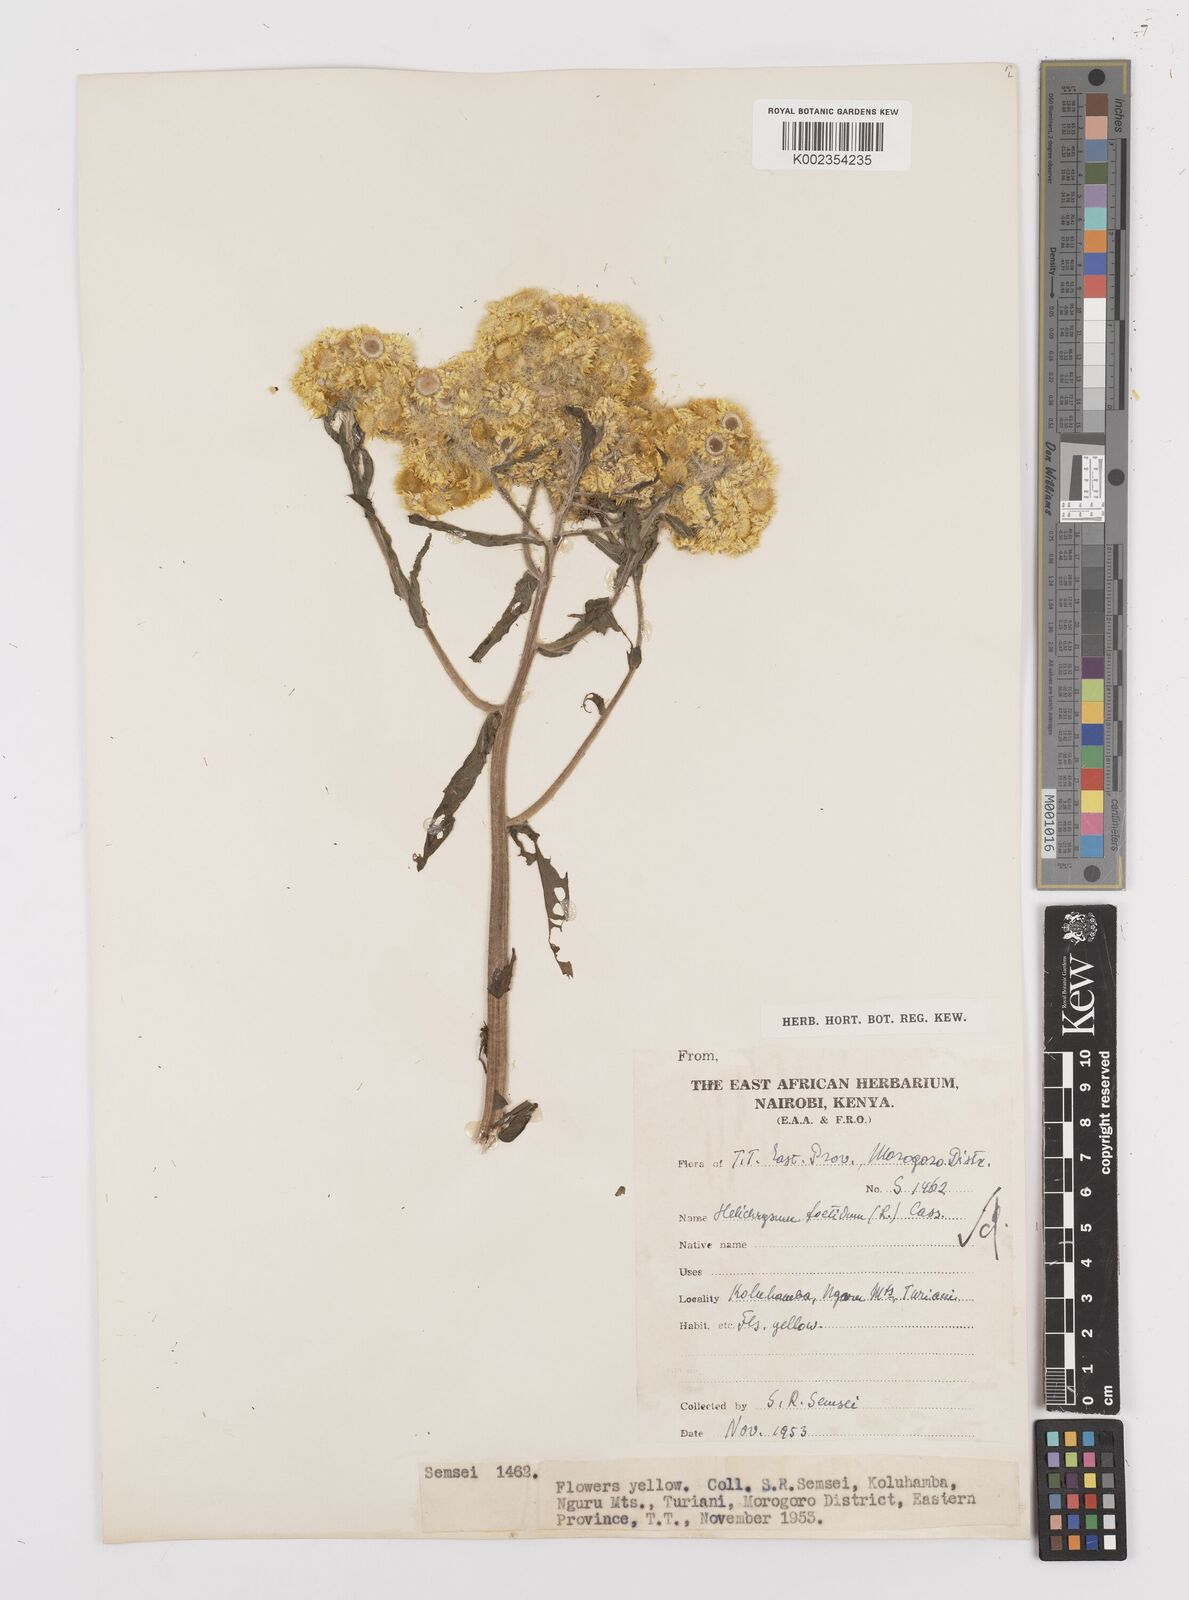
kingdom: Plantae
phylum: Tracheophyta
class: Magnoliopsida
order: Asterales
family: Asteraceae
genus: Helichrysum
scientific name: Helichrysum
